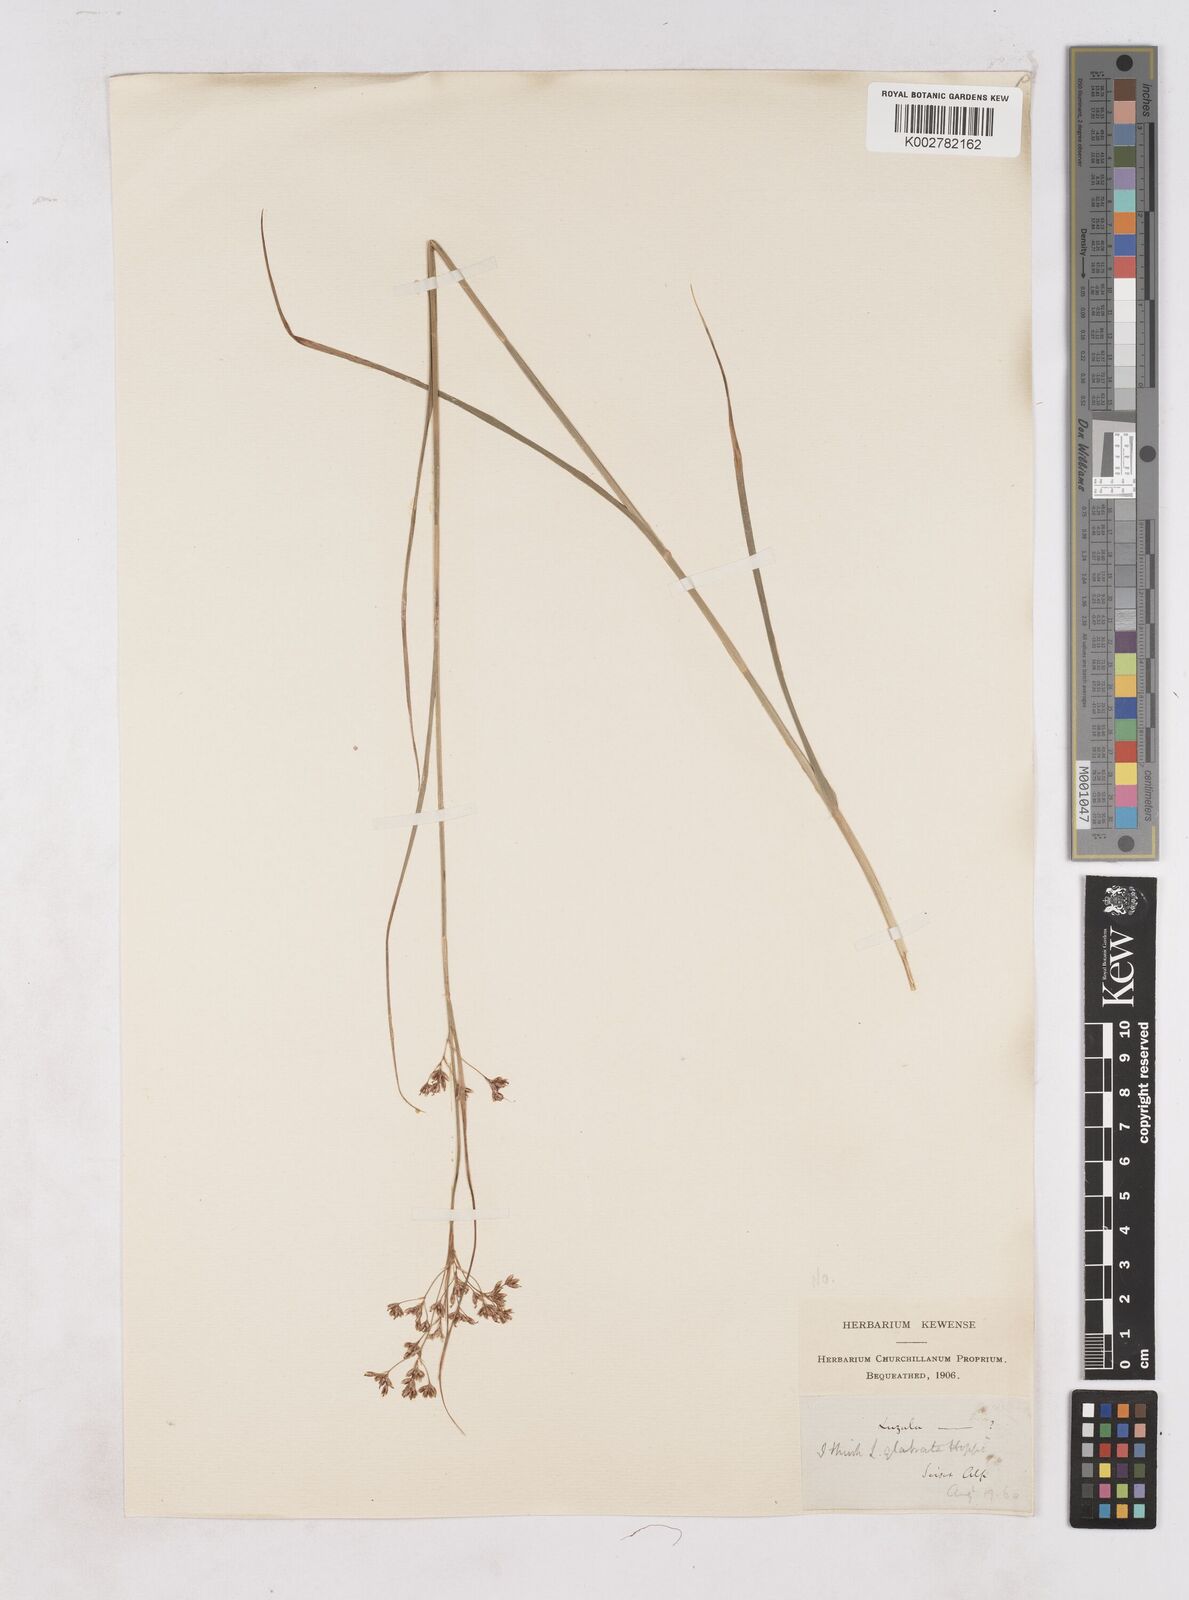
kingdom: Plantae
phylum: Tracheophyta
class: Liliopsida
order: Poales
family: Juncaceae
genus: Luzula
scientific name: Luzula glabrata
